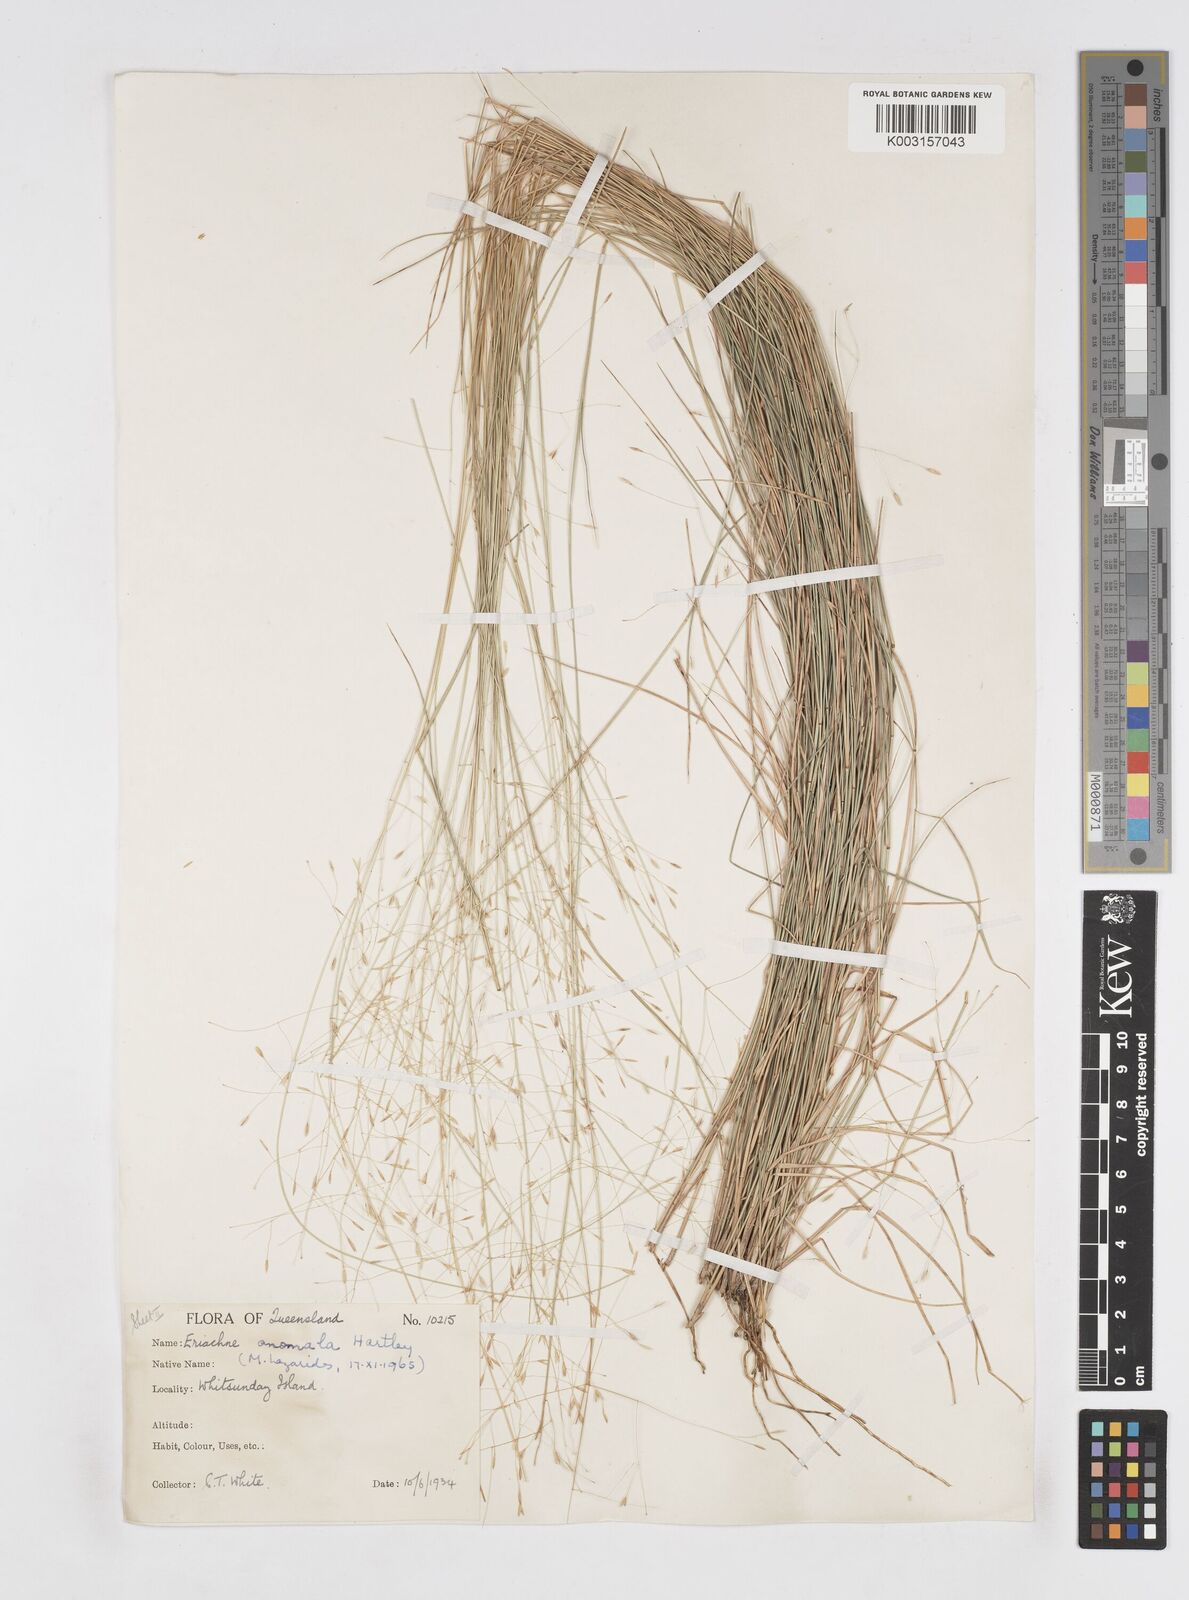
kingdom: Plantae
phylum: Tracheophyta
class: Liliopsida
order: Poales
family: Poaceae
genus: Eriachne
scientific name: Eriachne pallescens
